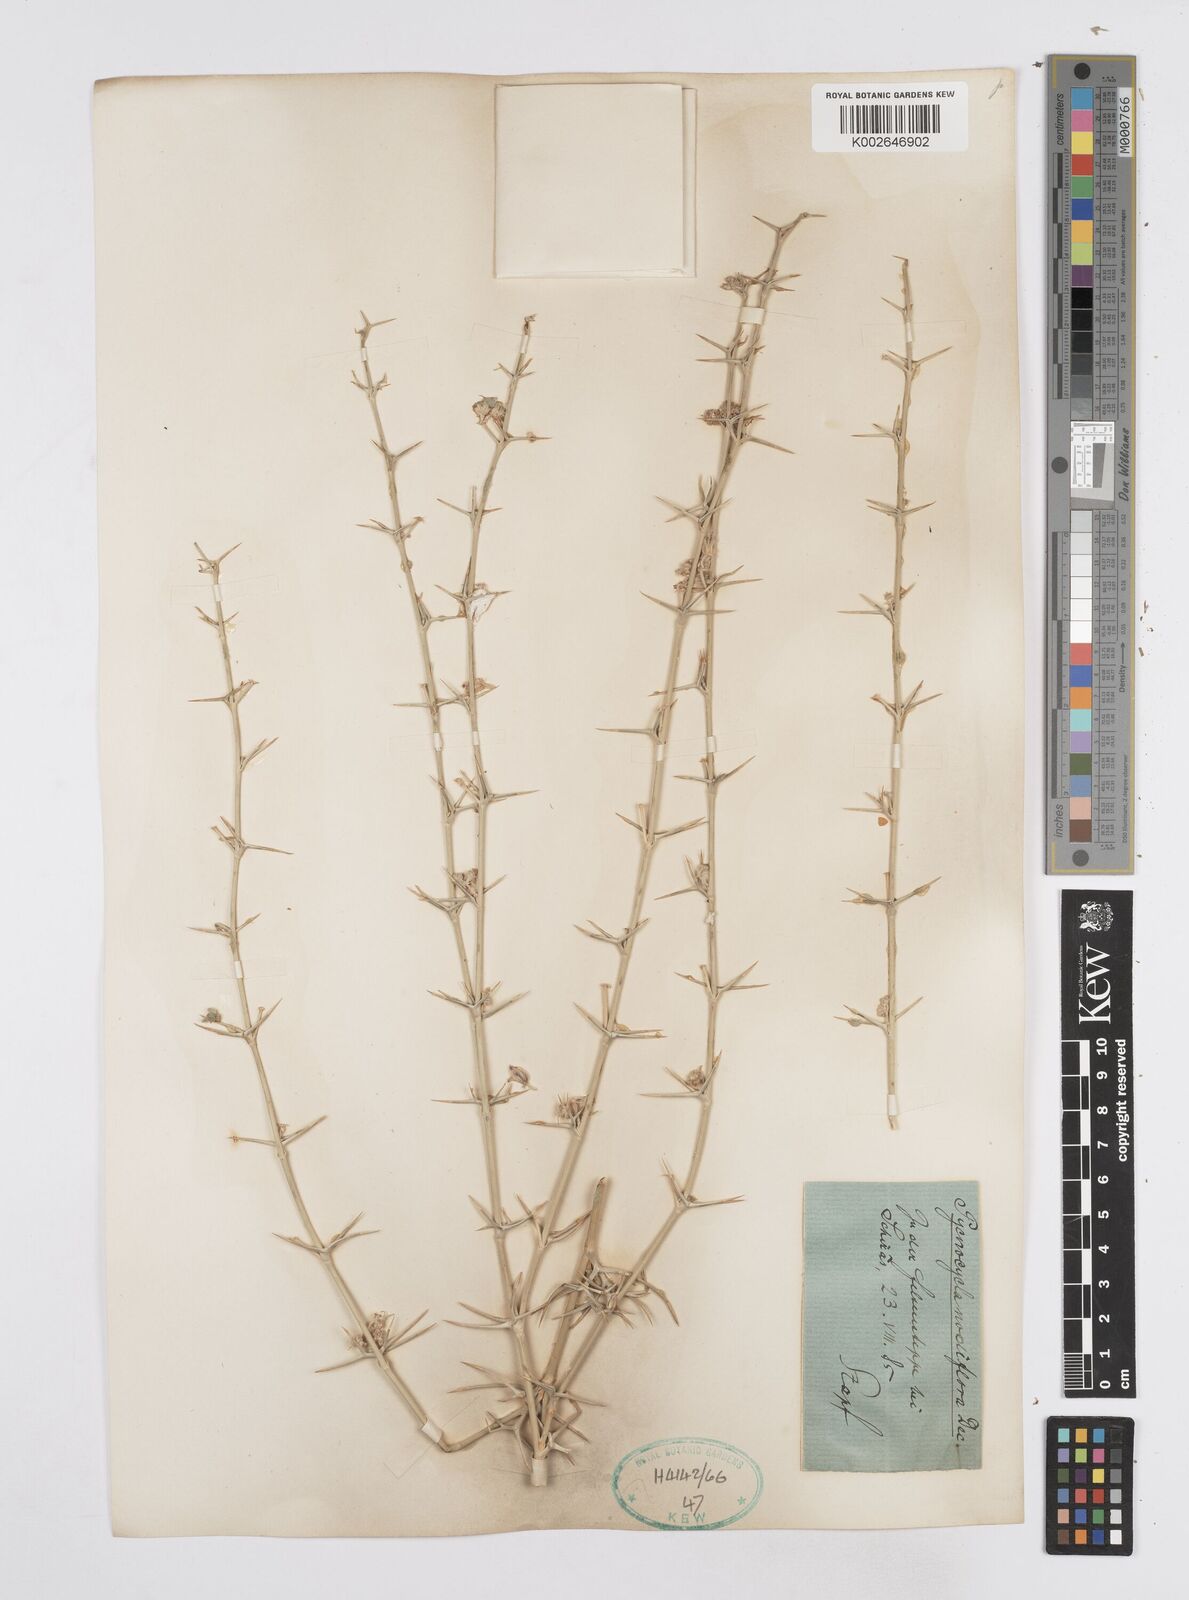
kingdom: Plantae
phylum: Tracheophyta
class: Magnoliopsida
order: Apiales
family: Apiaceae
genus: Pycnocycla
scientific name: Pycnocycla nodiflora
